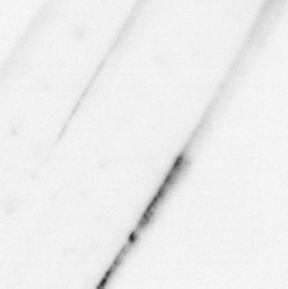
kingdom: Animalia
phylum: Chaetognatha
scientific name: Chaetognatha
